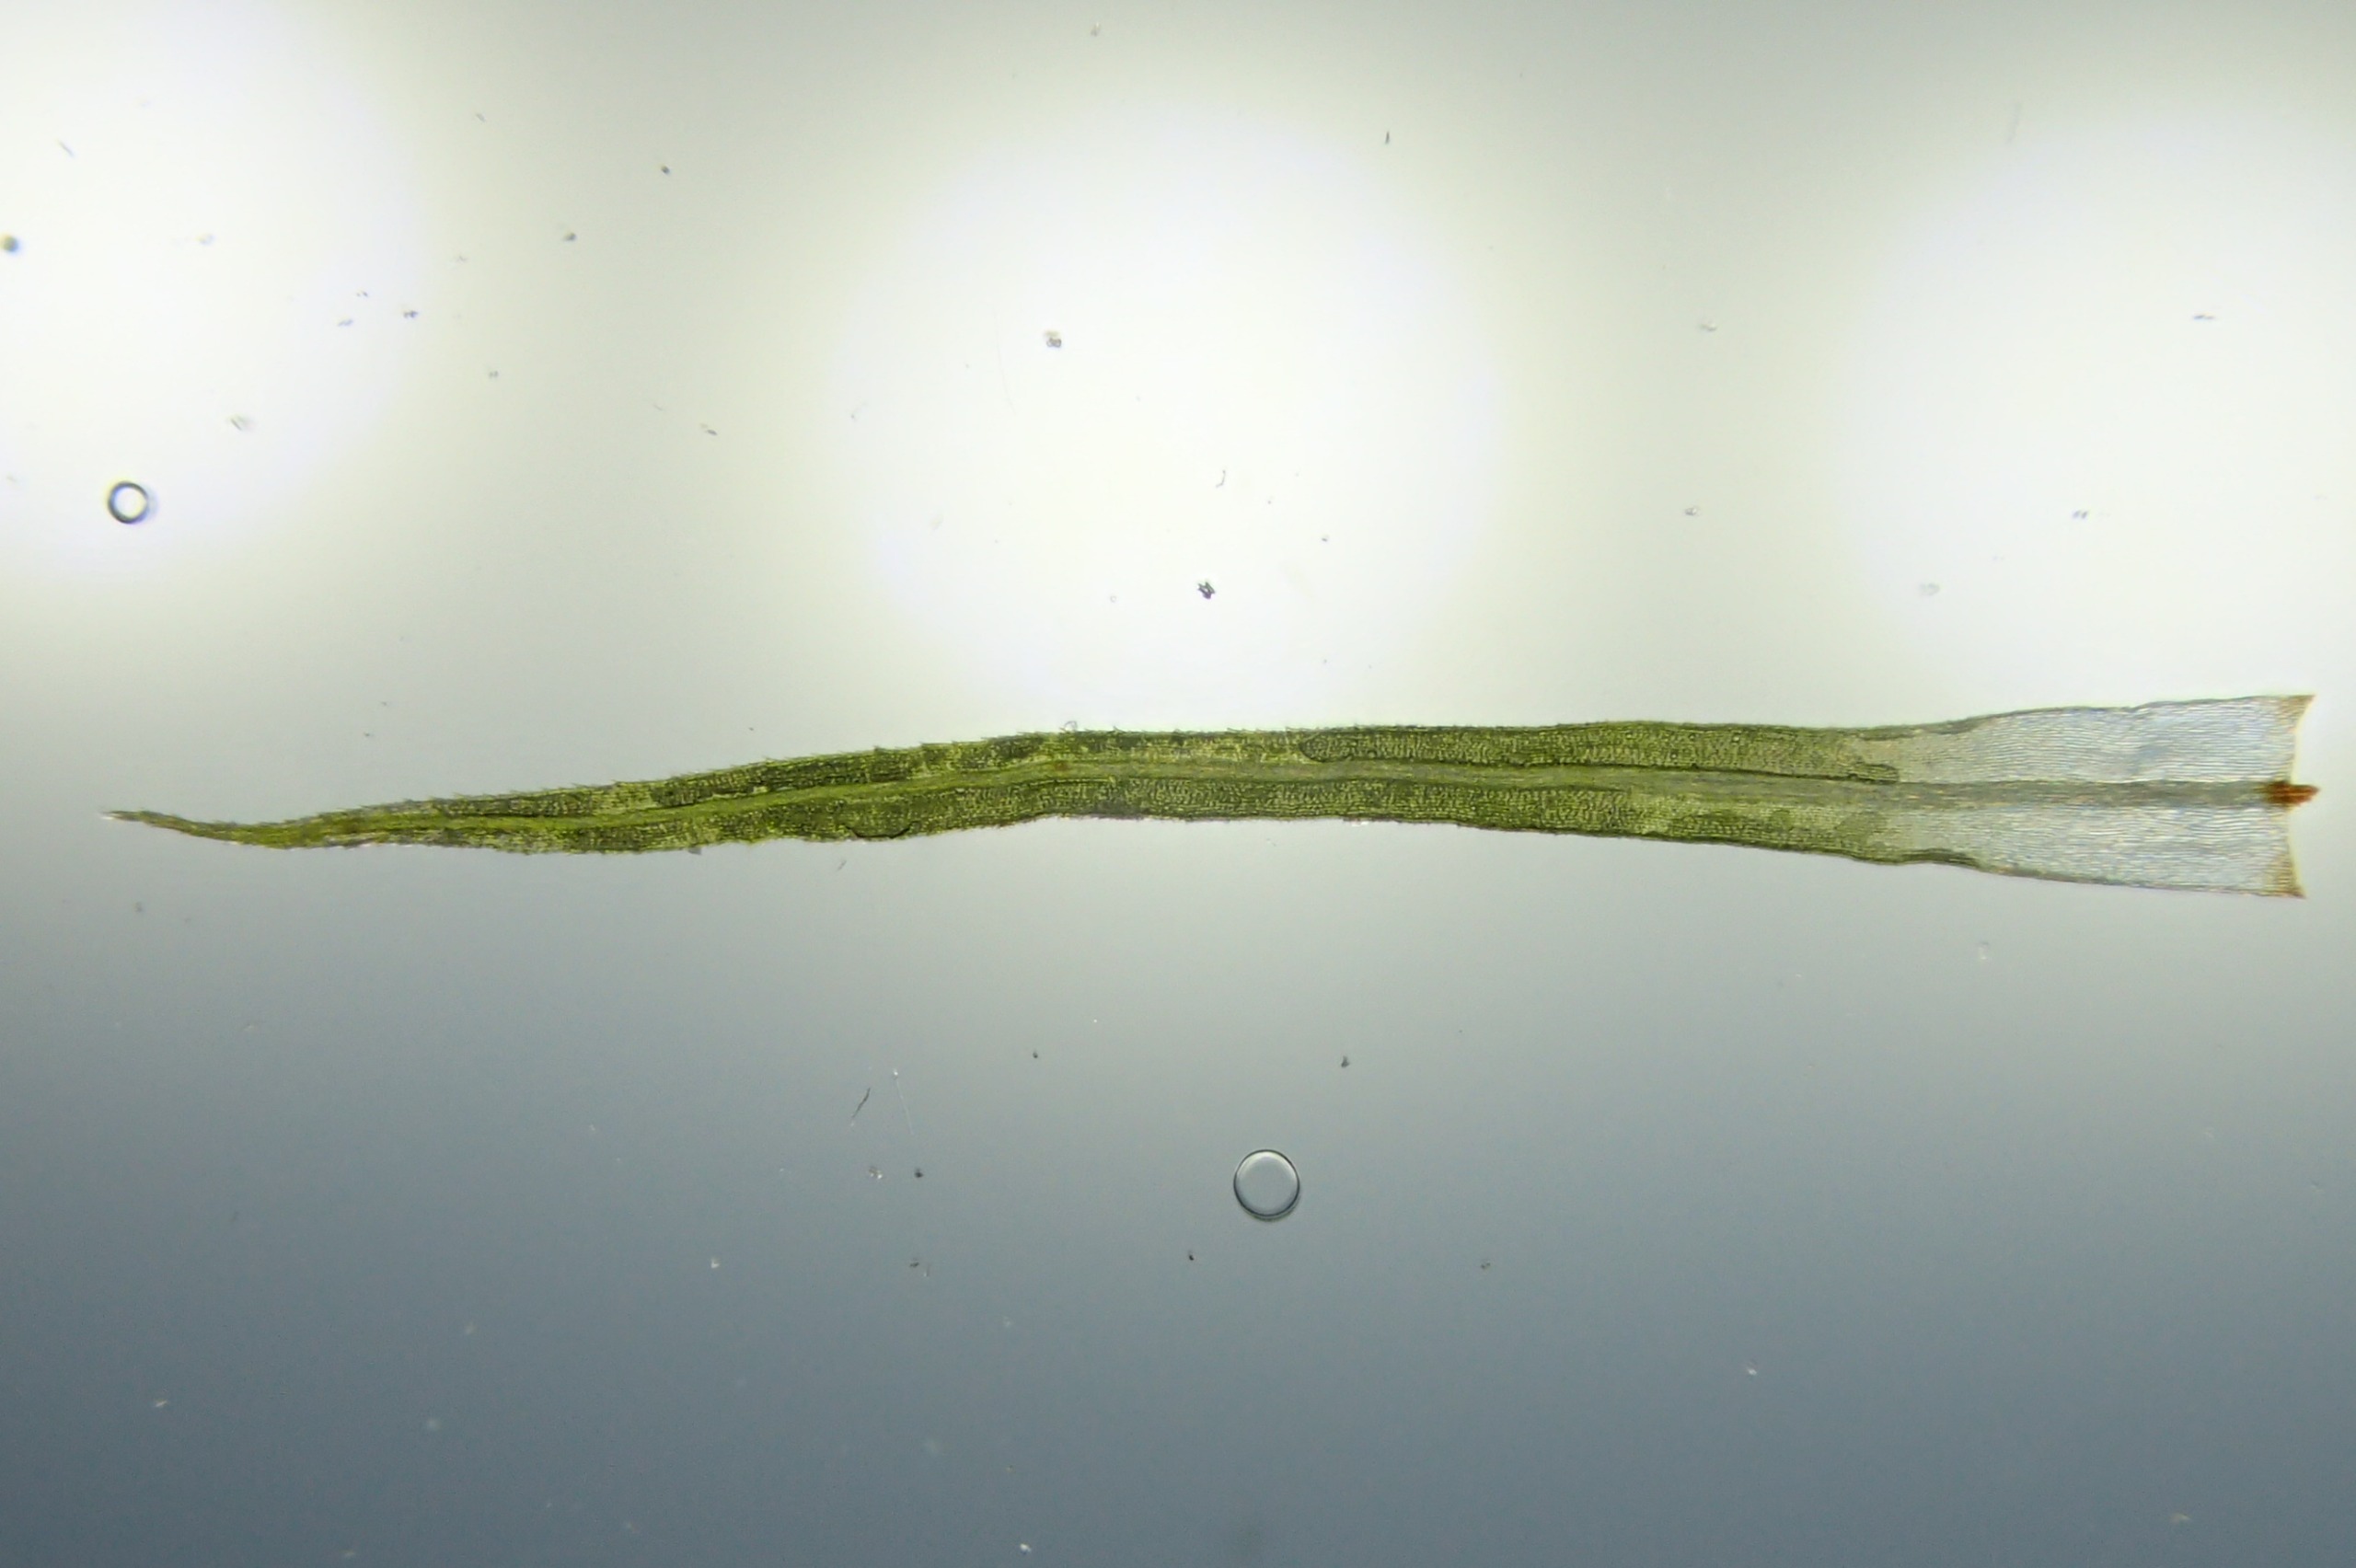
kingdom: Plantae
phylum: Bryophyta
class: Bryopsida
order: Bartramiales
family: Bartramiaceae
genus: Bartramia
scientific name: Bartramia pomiformis
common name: Gulgrøn kuglekapsel
